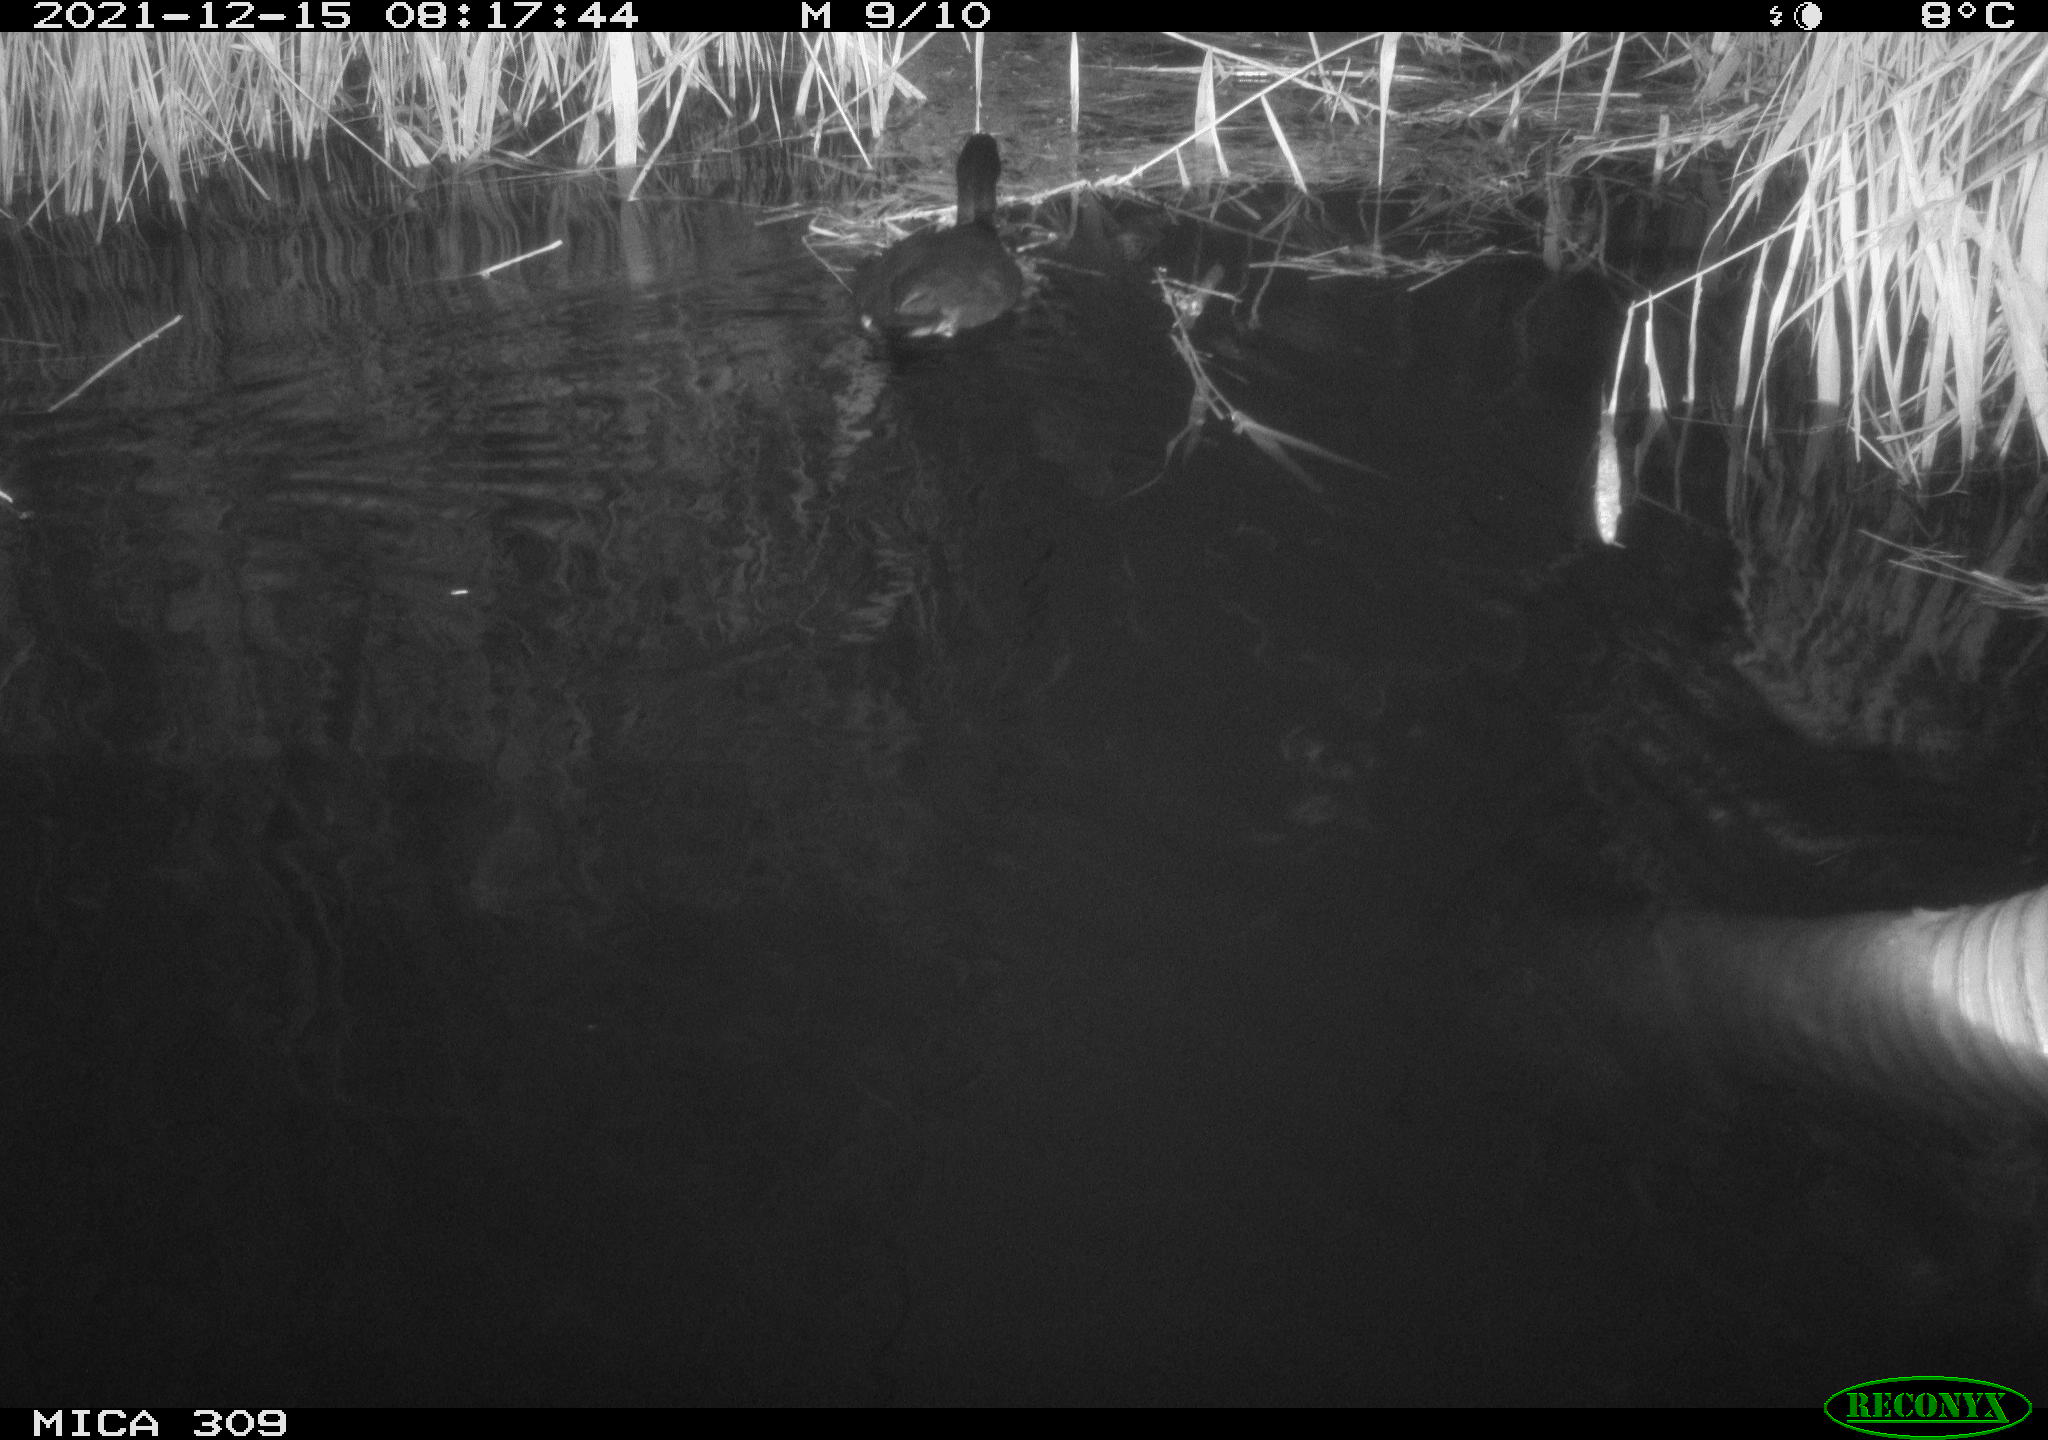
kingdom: Animalia
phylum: Chordata
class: Aves
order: Gruiformes
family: Rallidae
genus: Fulica
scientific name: Fulica atra
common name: Eurasian coot
